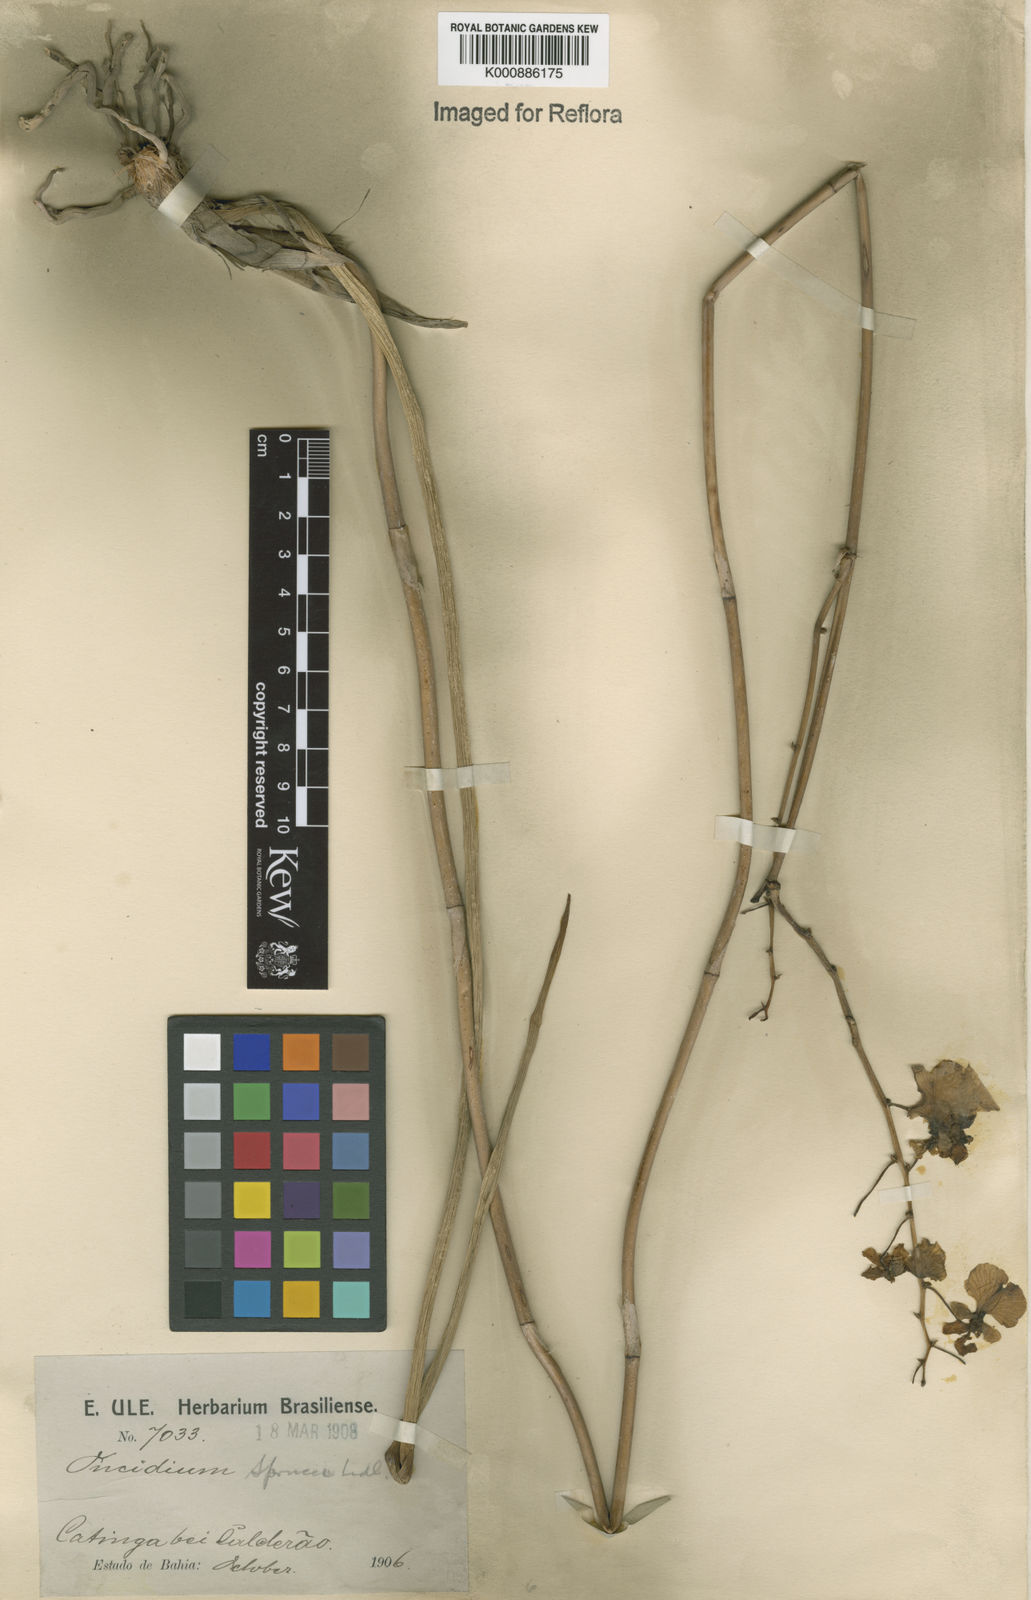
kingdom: Plantae
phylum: Tracheophyta
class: Liliopsida
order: Asparagales
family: Orchidaceae
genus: Trichocentrum
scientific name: Trichocentrum cebolleta
